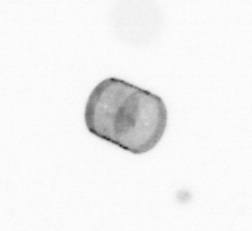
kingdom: Chromista
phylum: Ochrophyta
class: Bacillariophyceae
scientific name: Bacillariophyceae
